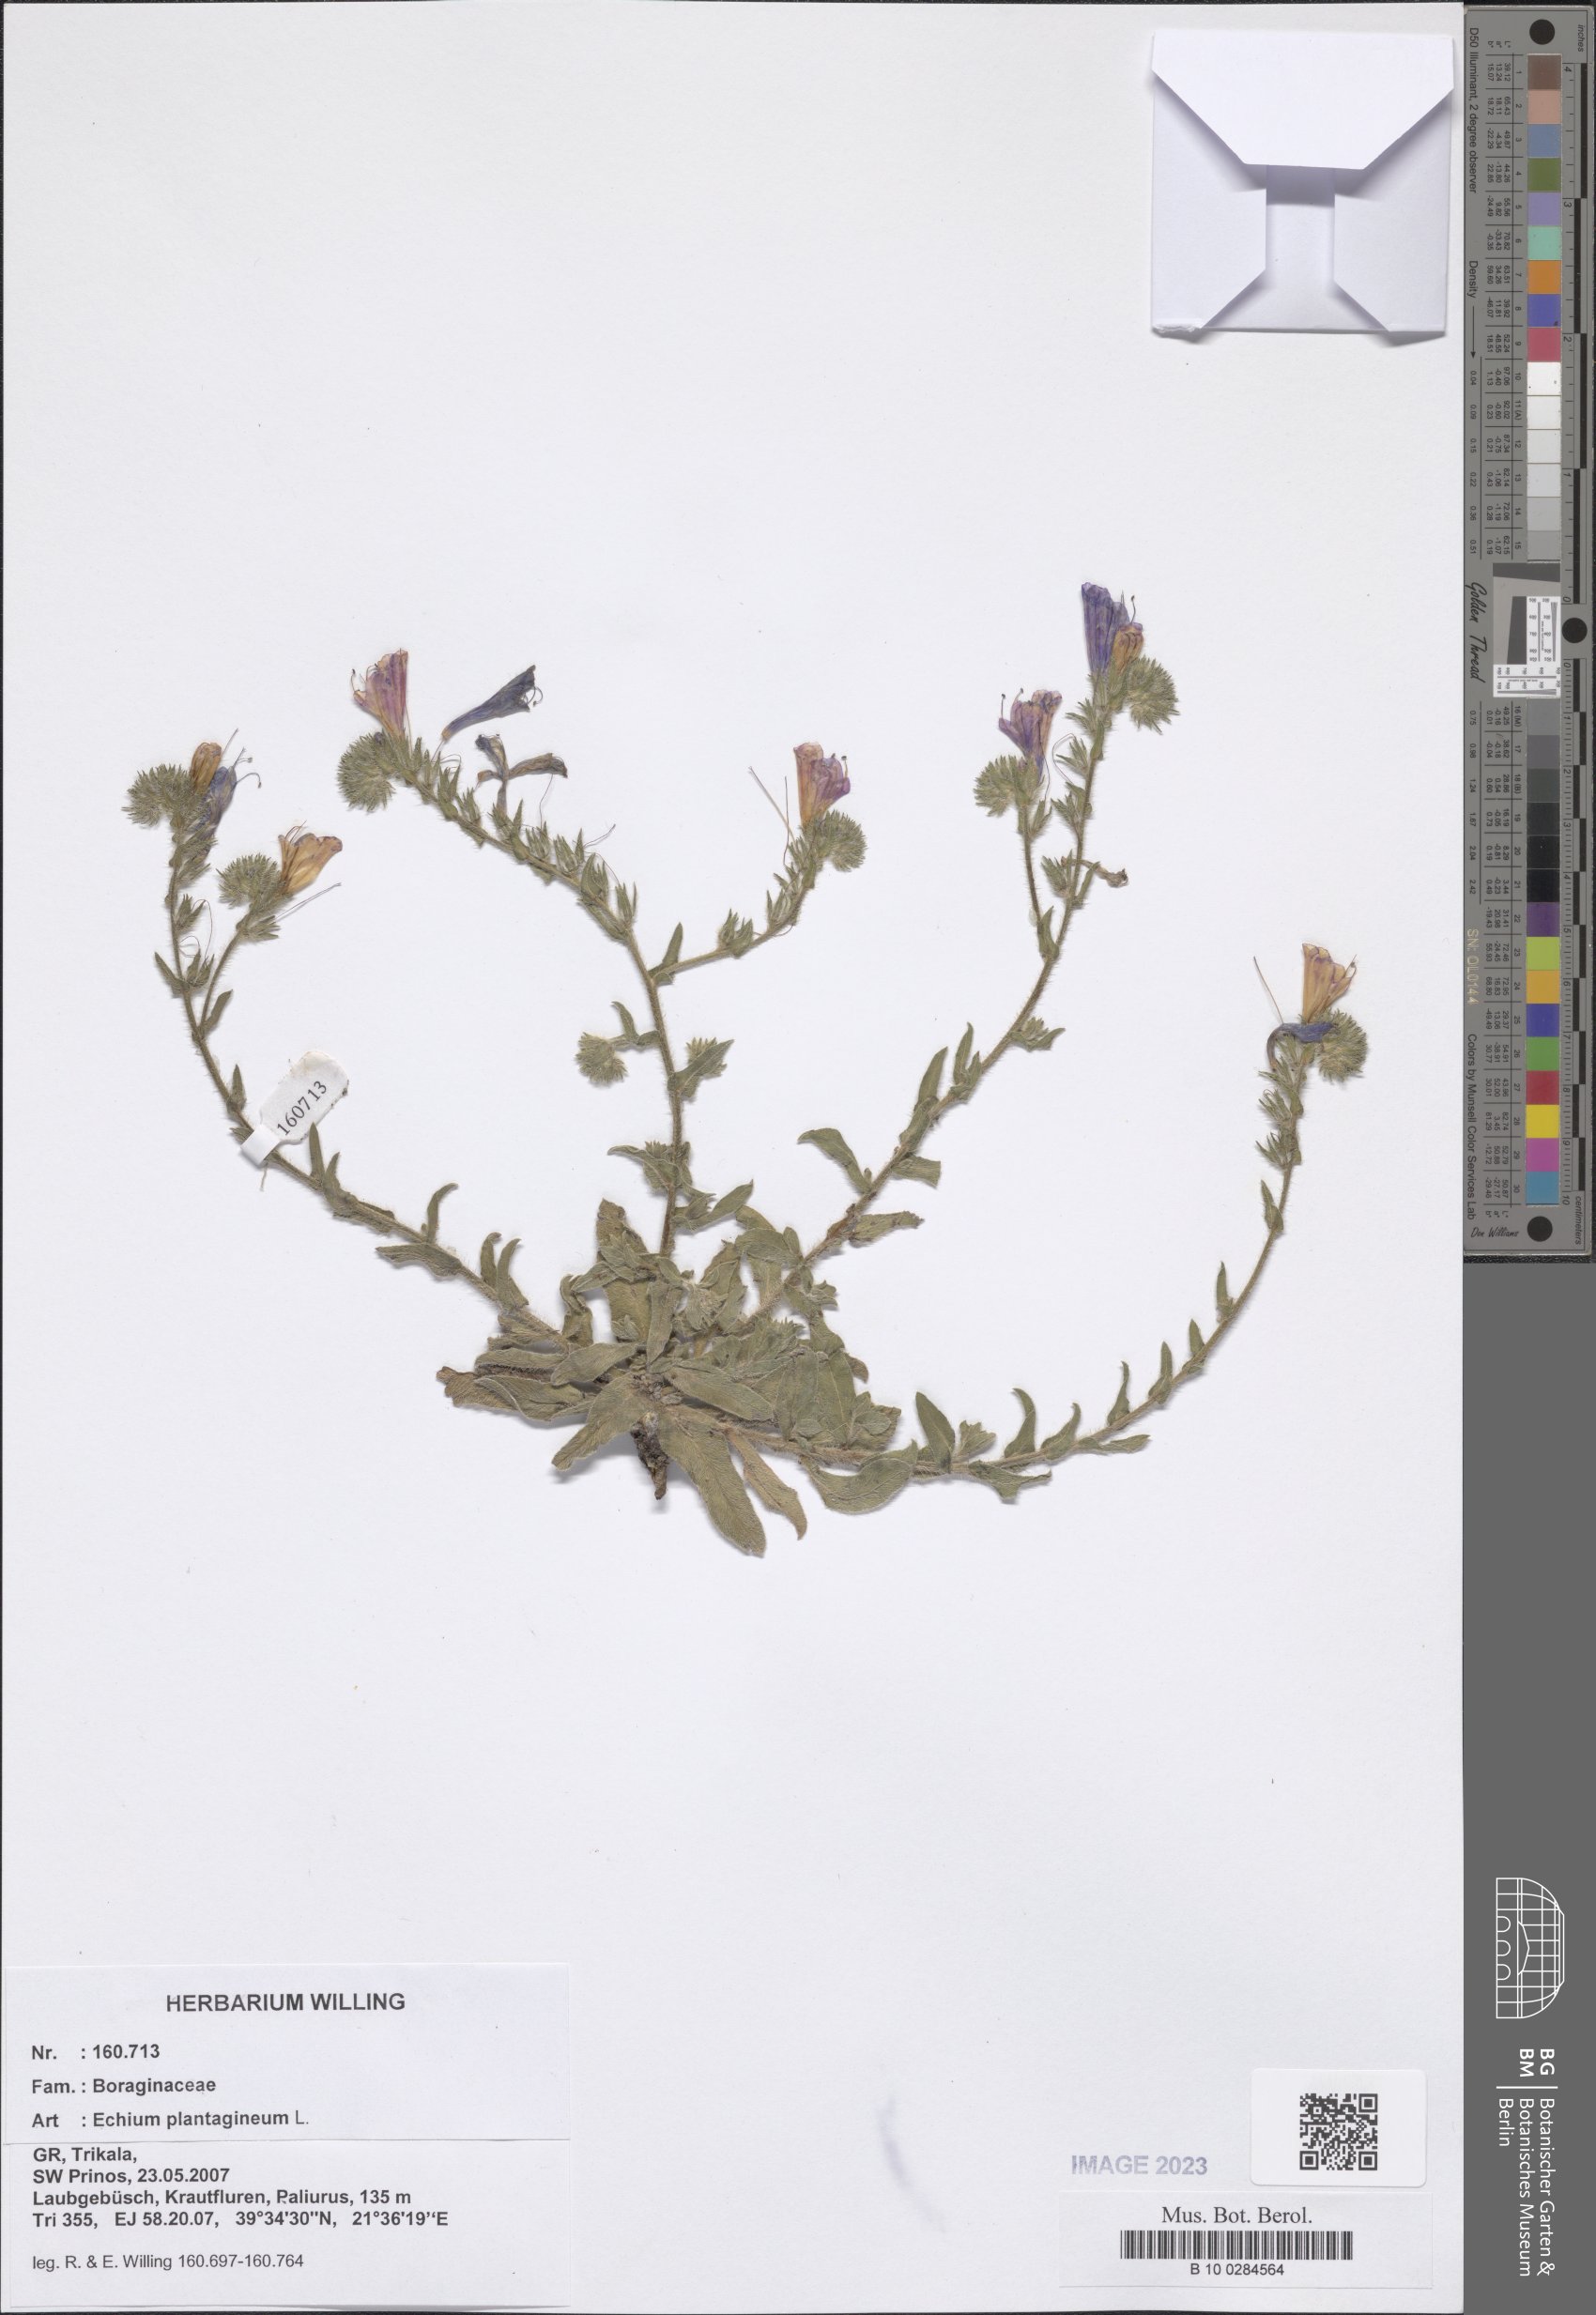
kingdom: Plantae
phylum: Tracheophyta
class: Magnoliopsida
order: Boraginales
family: Boraginaceae
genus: Echium
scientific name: Echium plantagineum
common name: Purple viper's-bugloss
